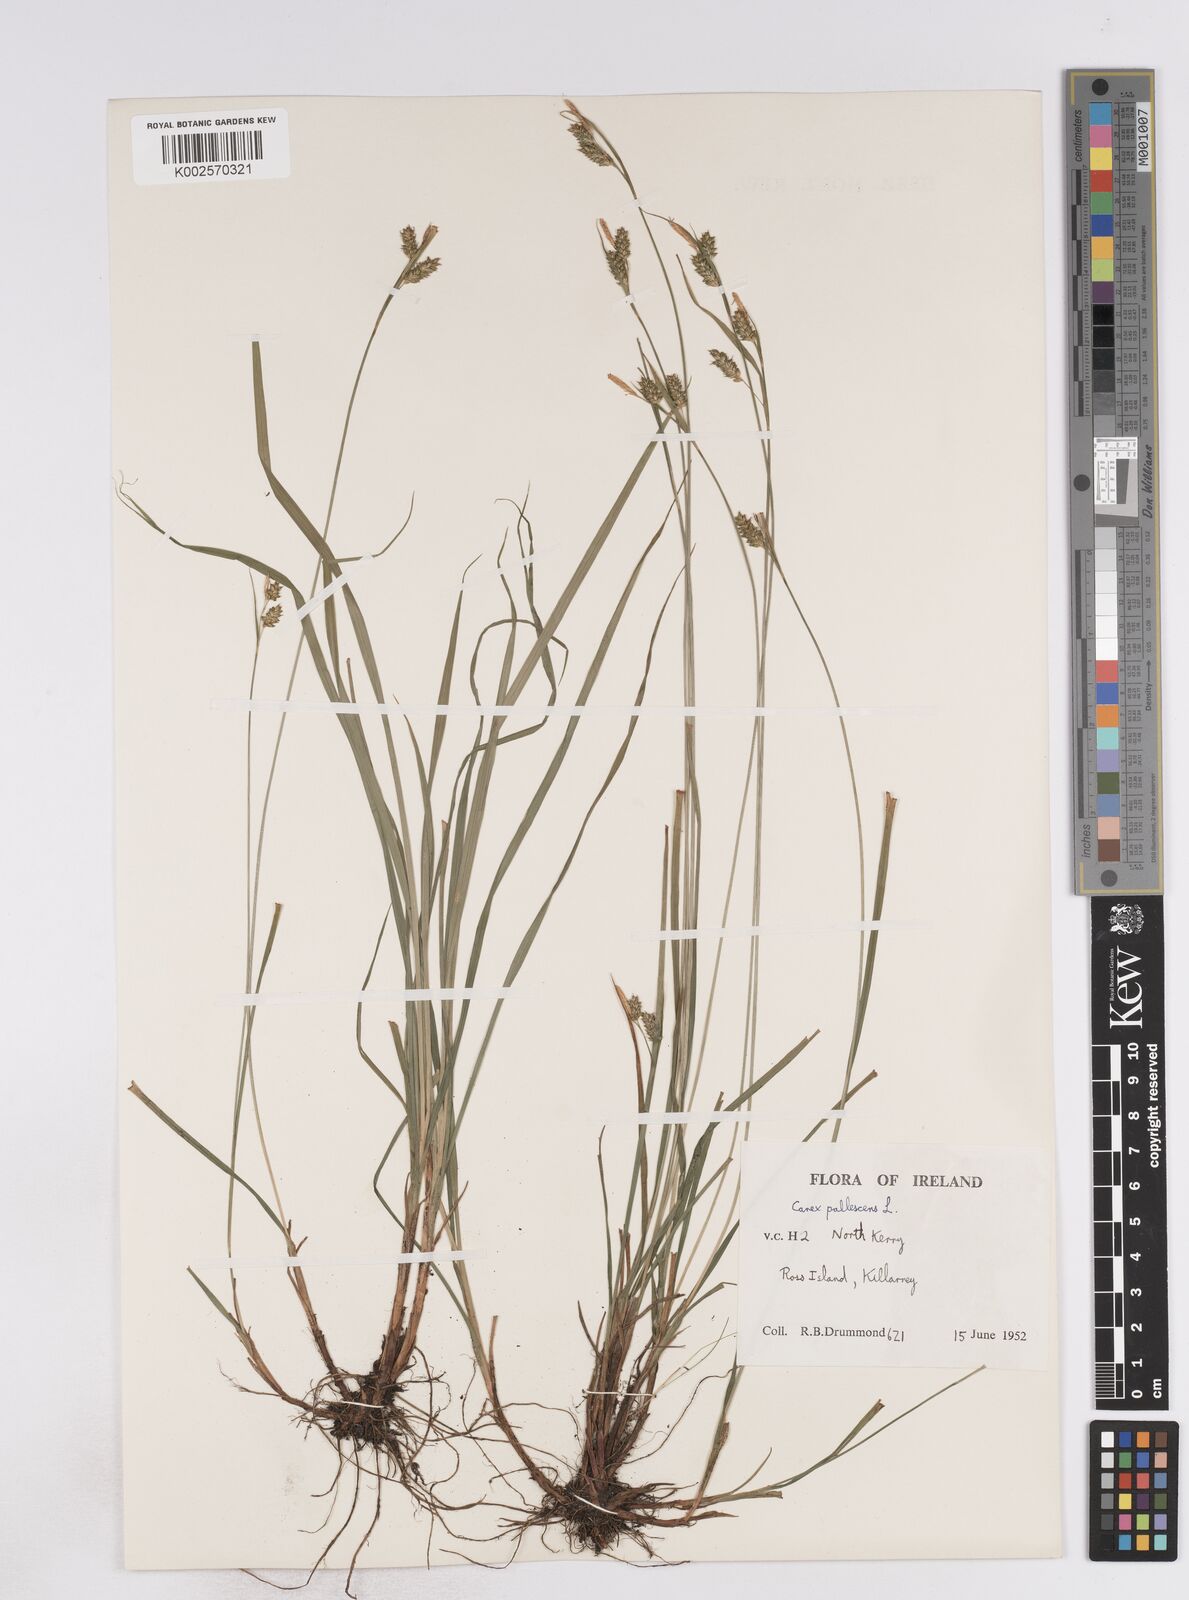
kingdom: Plantae
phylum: Tracheophyta
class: Liliopsida
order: Poales
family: Cyperaceae
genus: Carex
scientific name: Carex pallescens
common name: Pale sedge
